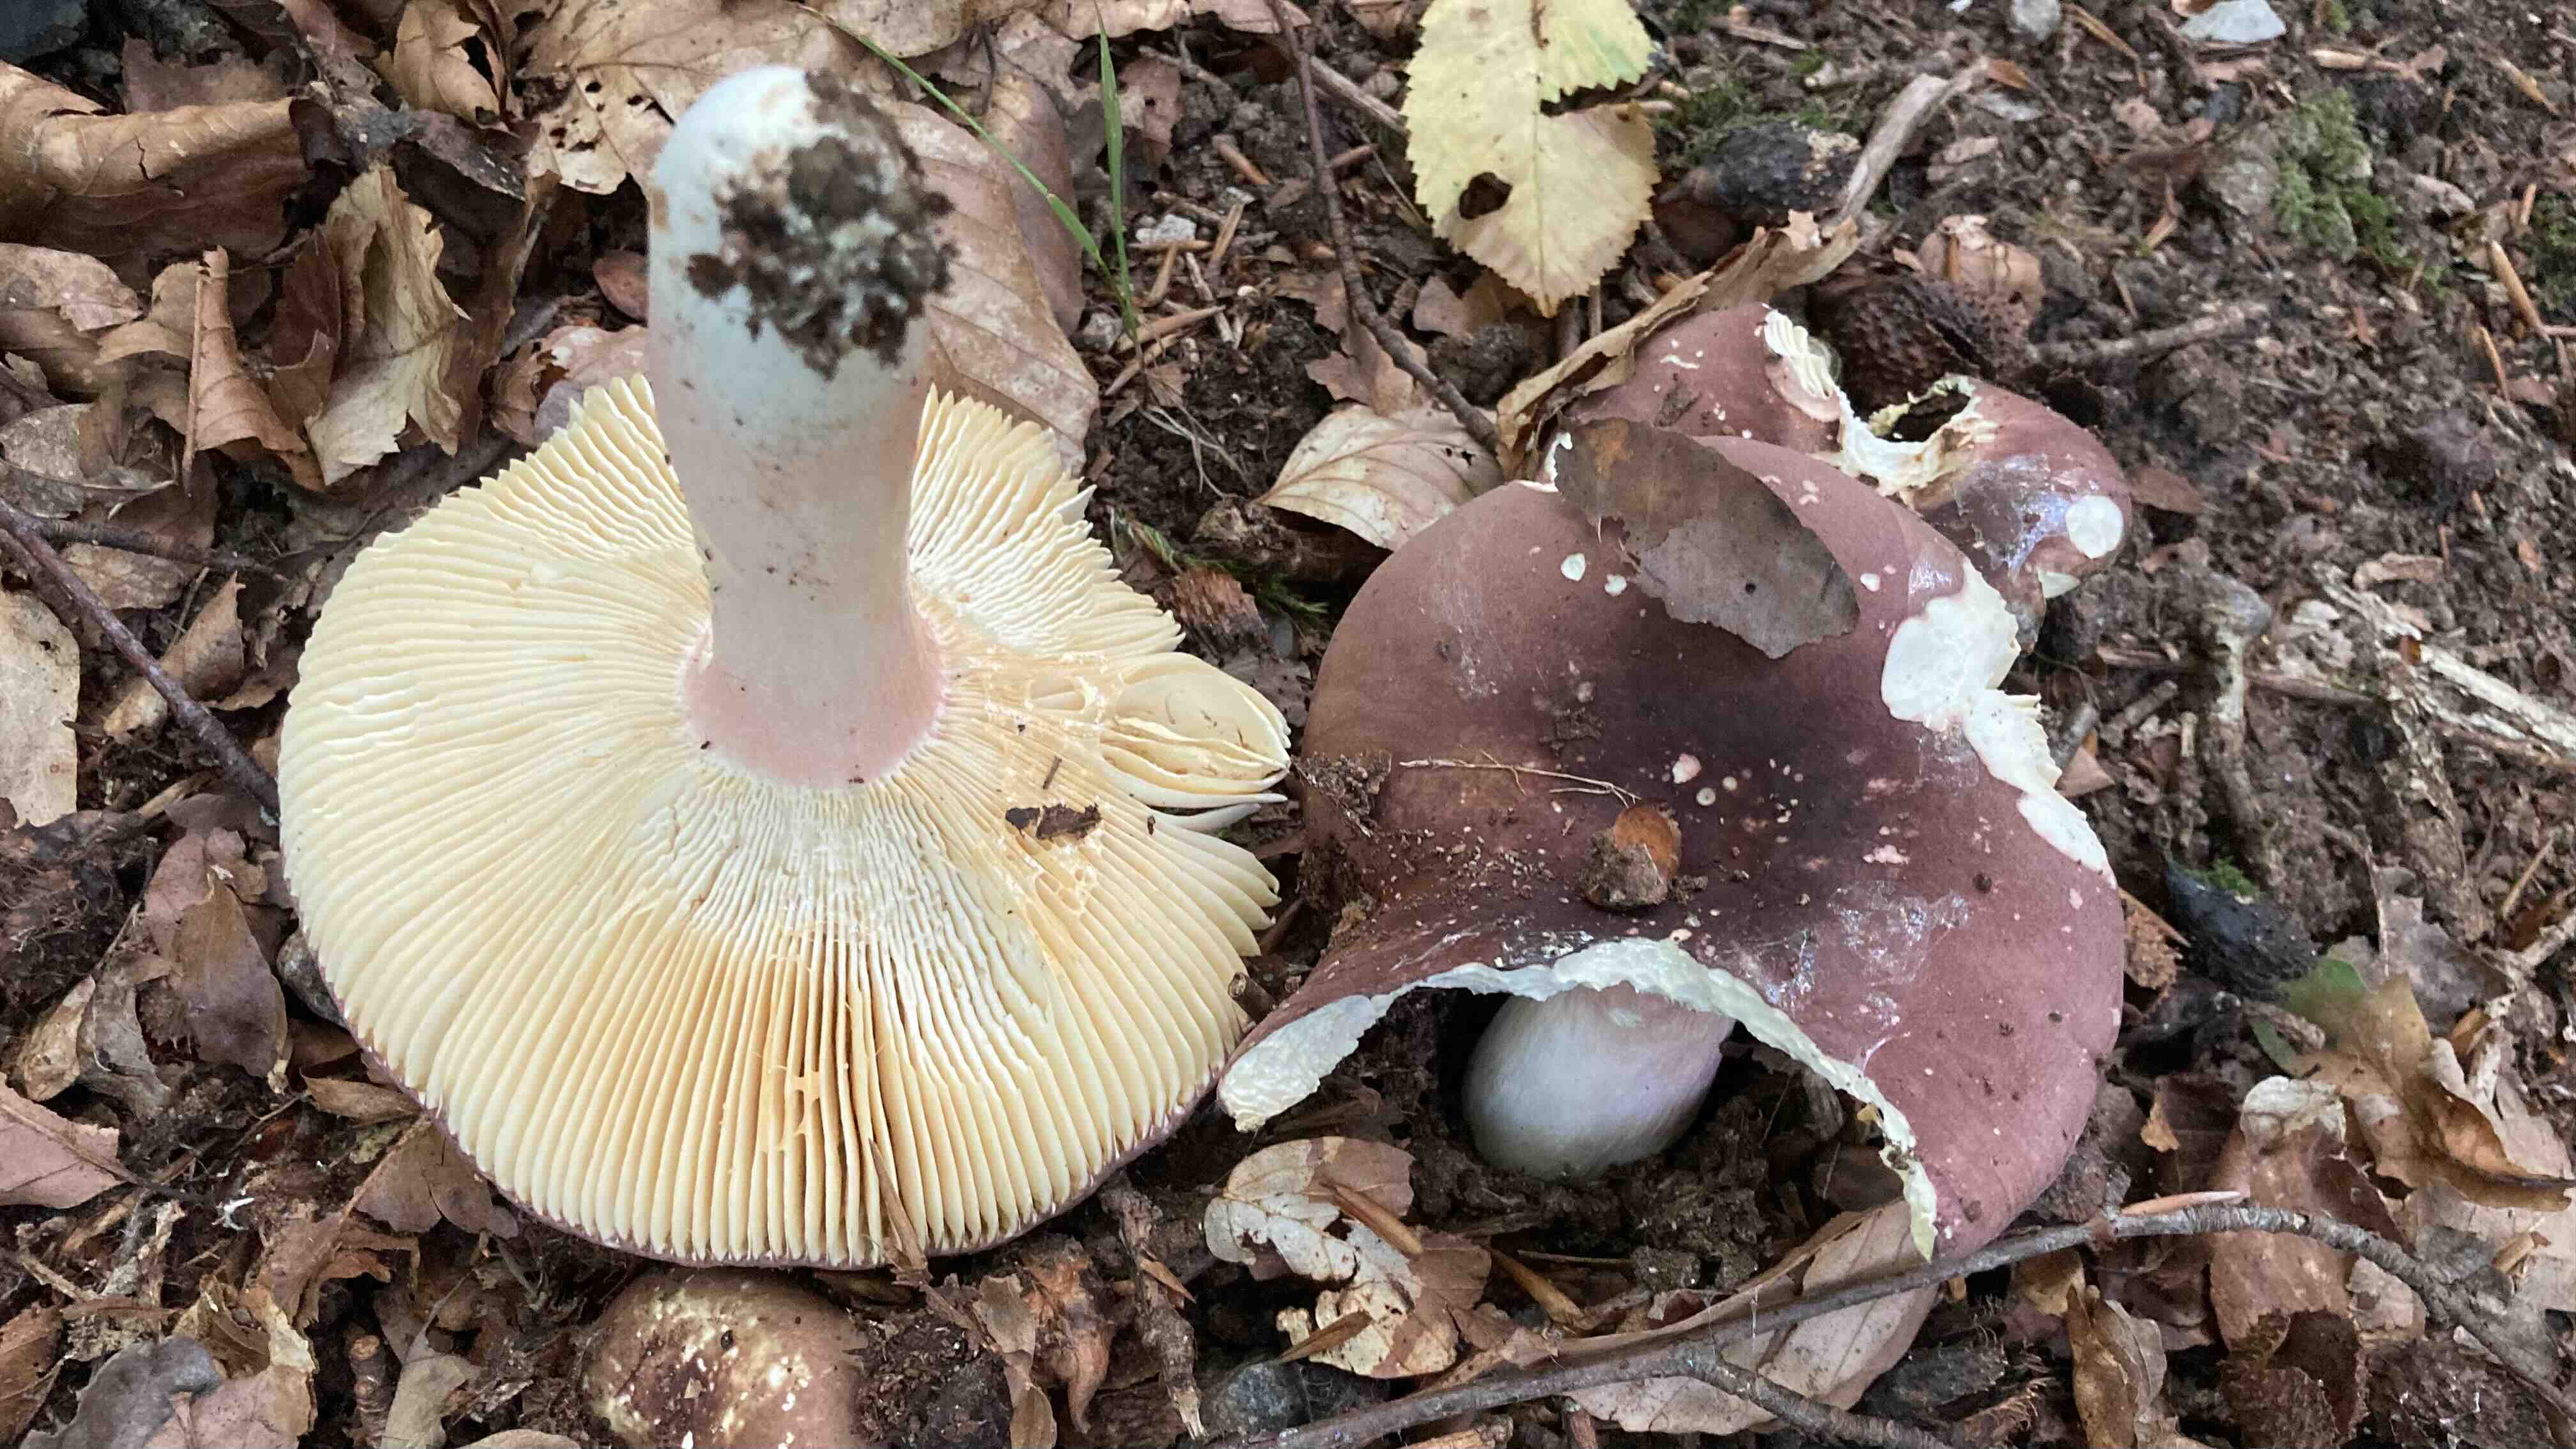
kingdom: Fungi
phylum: Basidiomycota
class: Agaricomycetes
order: Russulales
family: Russulaceae
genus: Russula
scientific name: Russula olivacea
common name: stor skørhat
